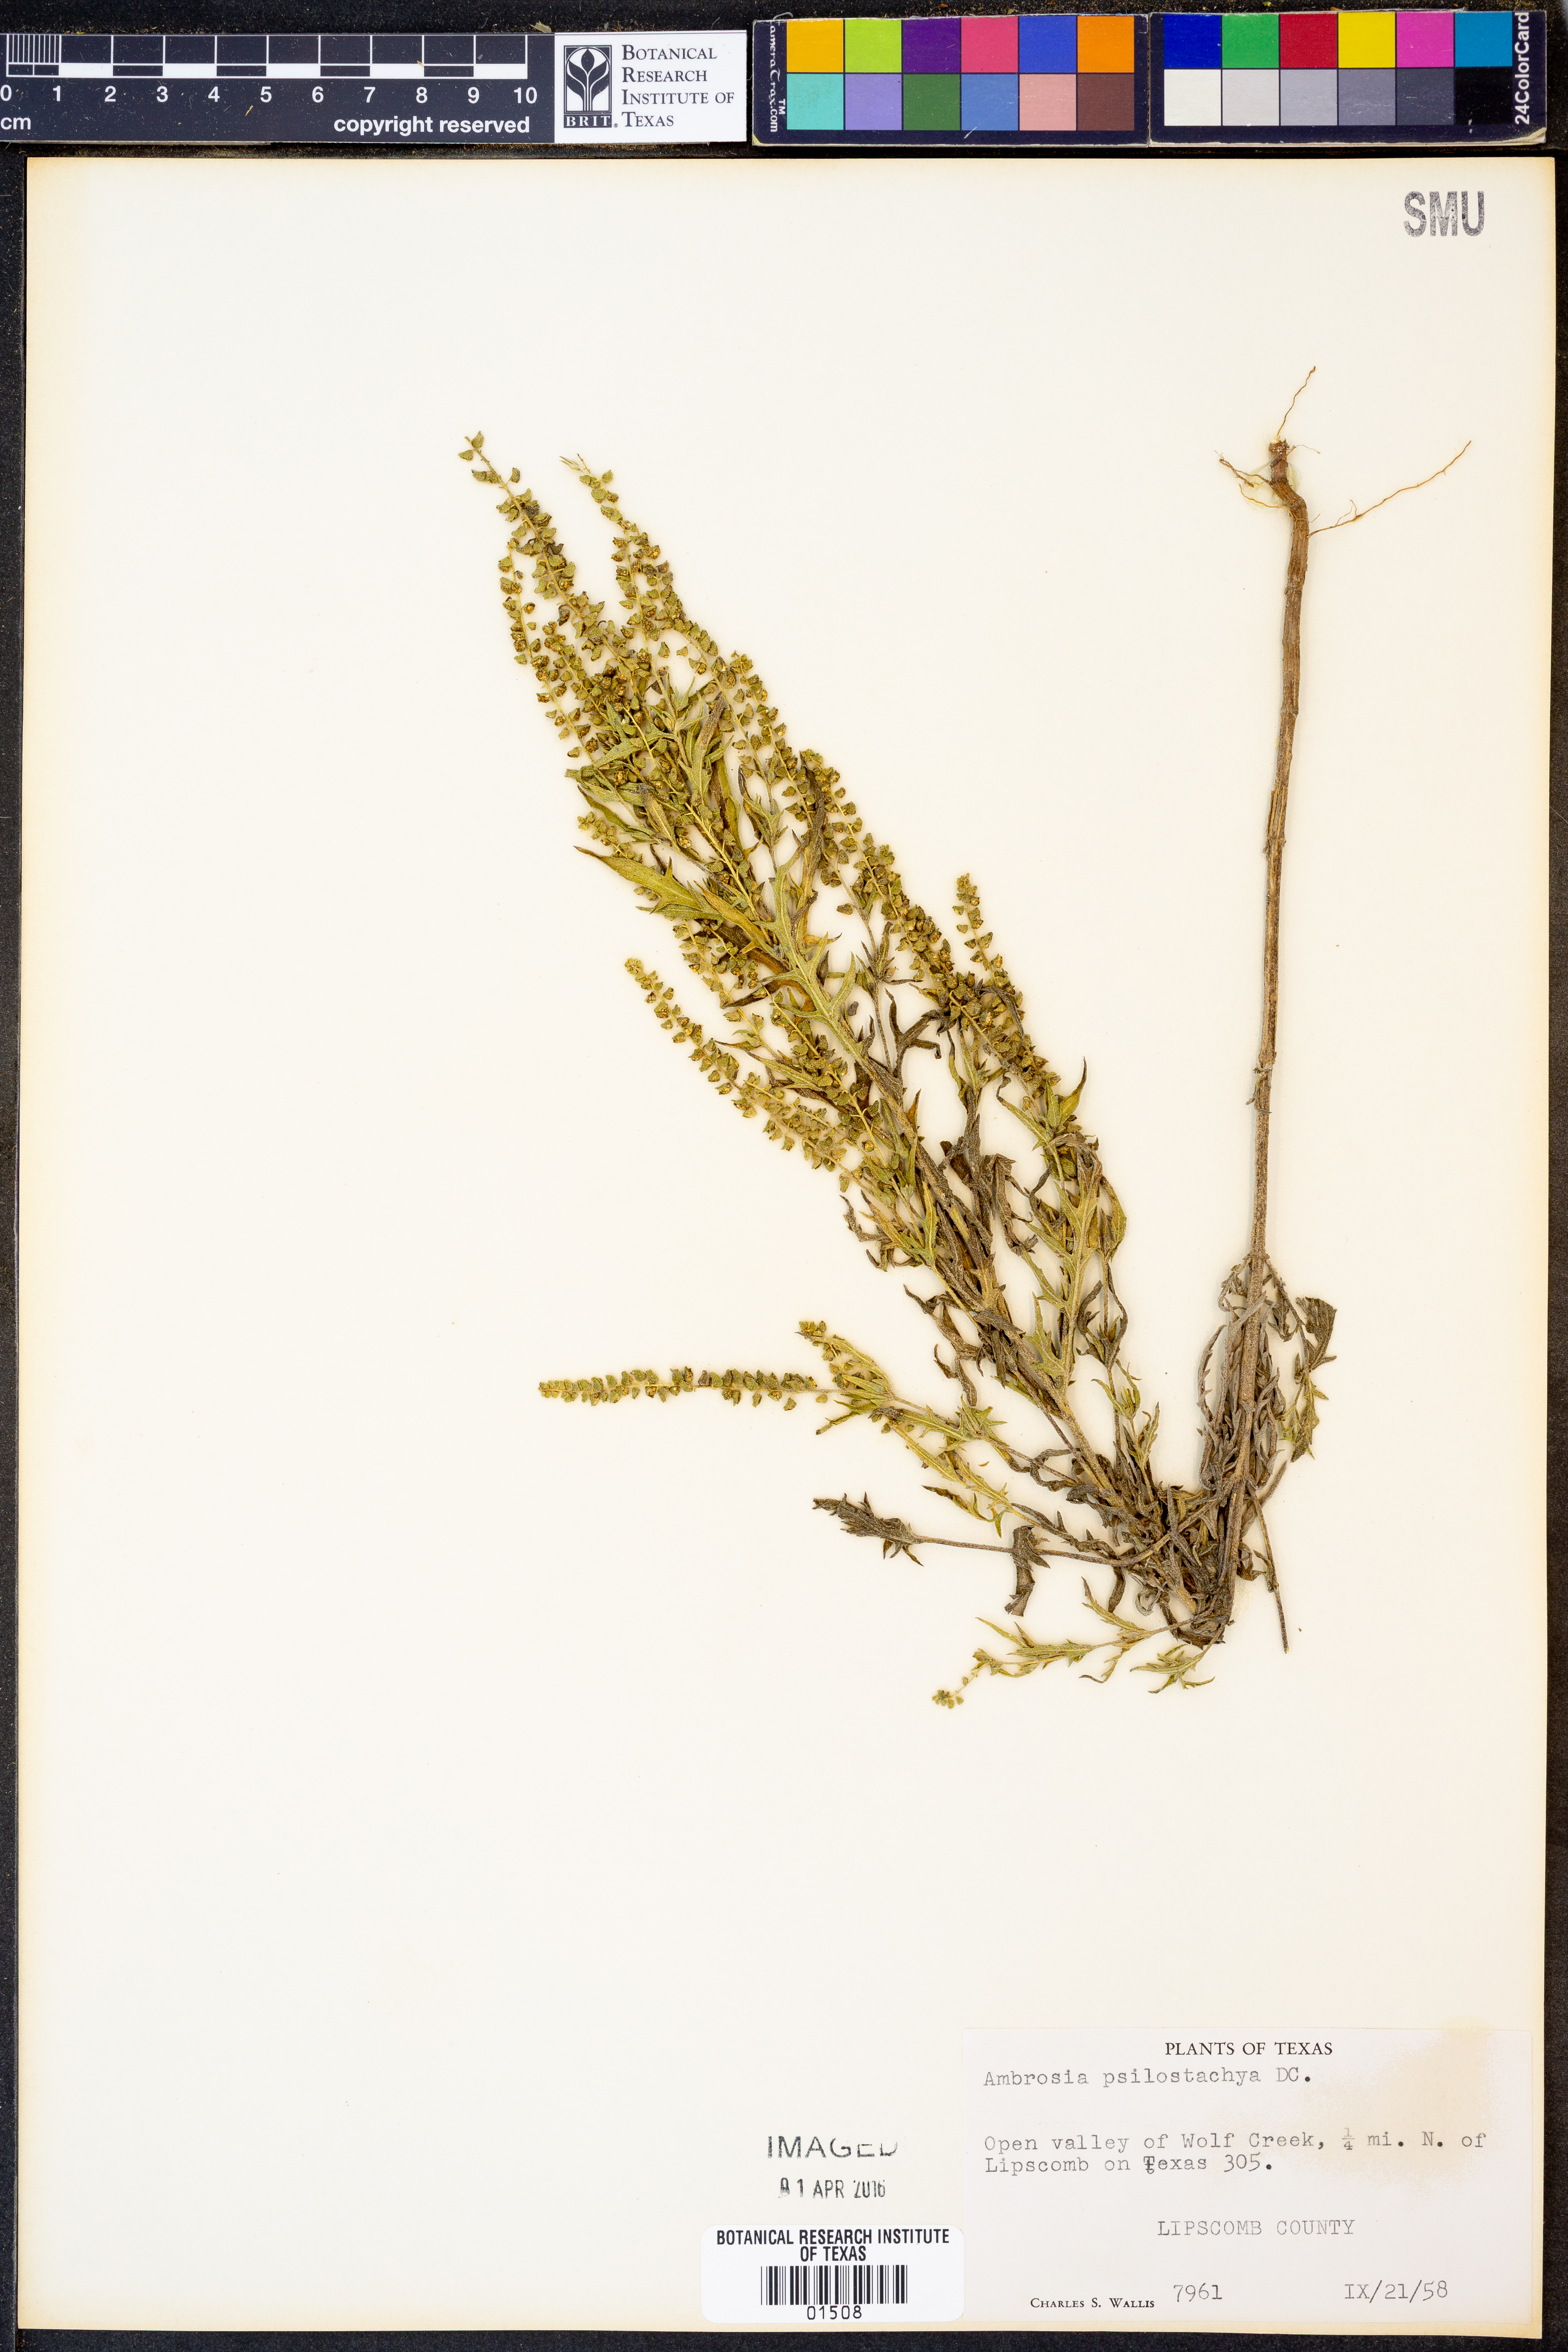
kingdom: Plantae
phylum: Tracheophyta
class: Magnoliopsida
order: Asterales
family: Asteraceae
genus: Ambrosia
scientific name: Ambrosia psilostachya
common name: Perennial ragweed
